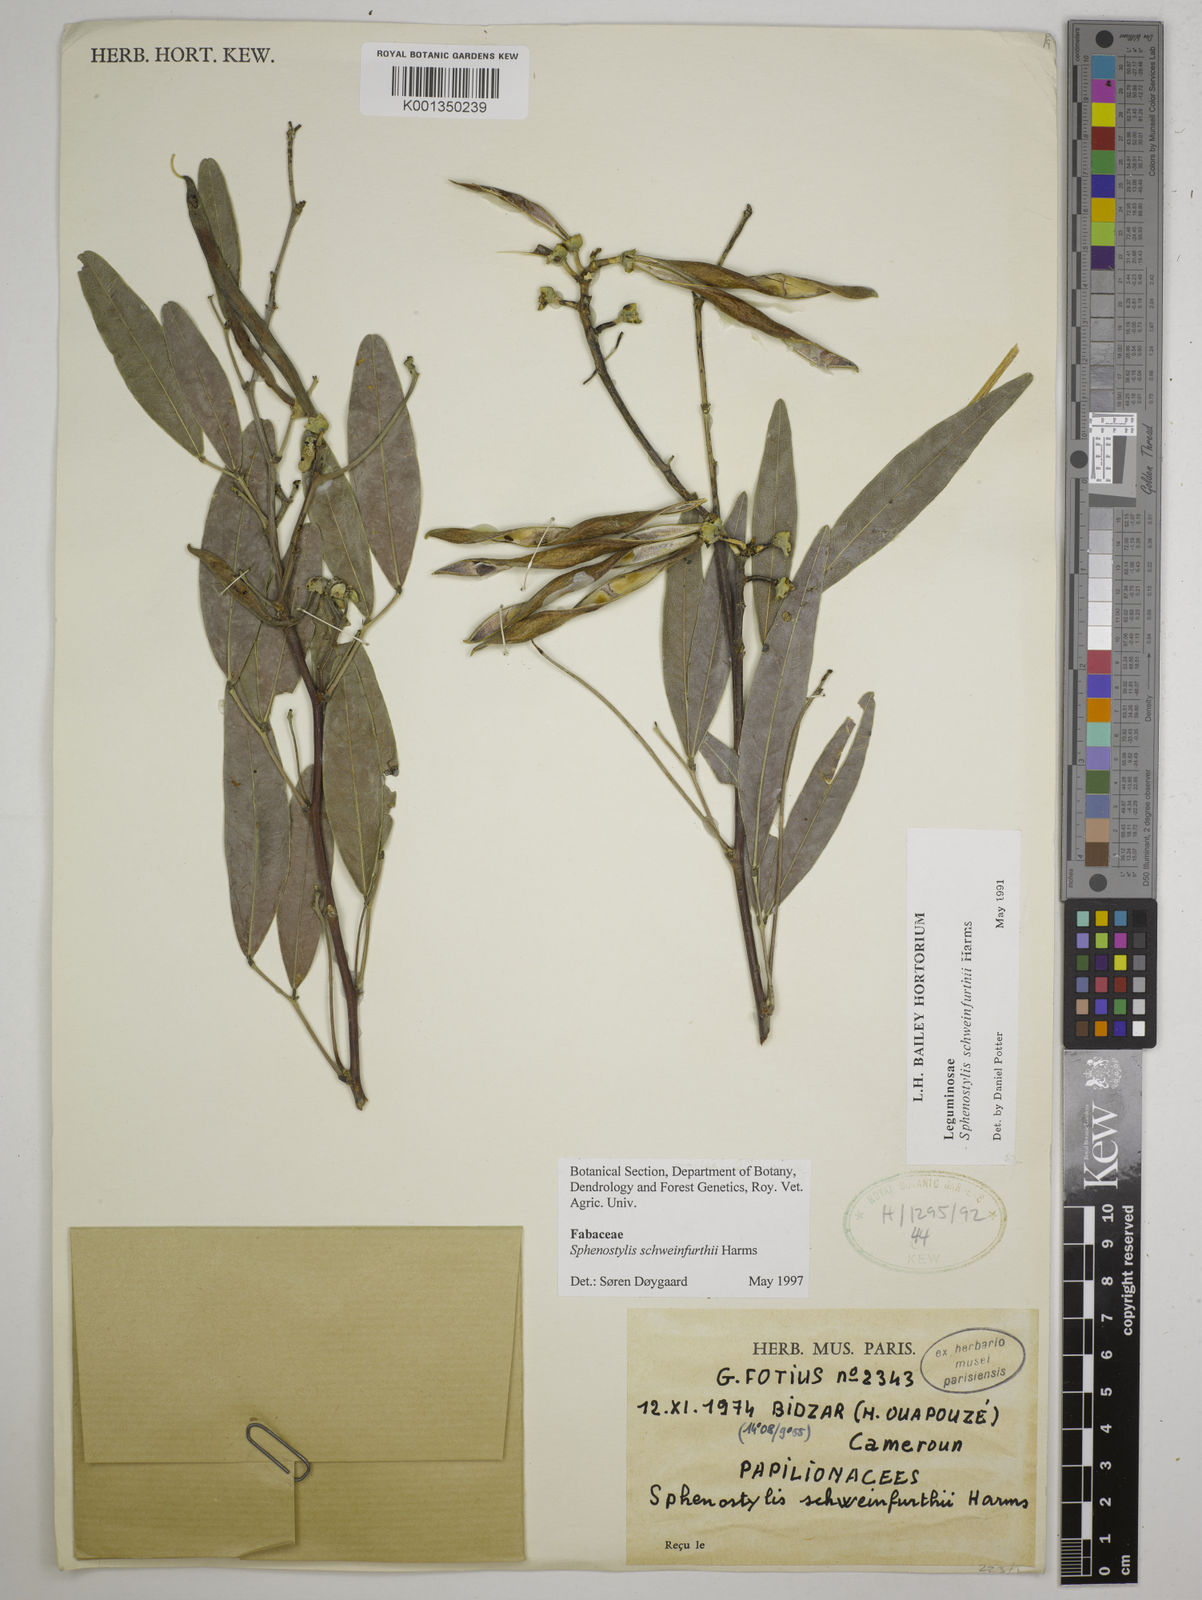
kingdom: Plantae
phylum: Tracheophyta
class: Magnoliopsida
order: Fabales
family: Fabaceae
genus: Sphenostylis
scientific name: Sphenostylis schweinfurthii
